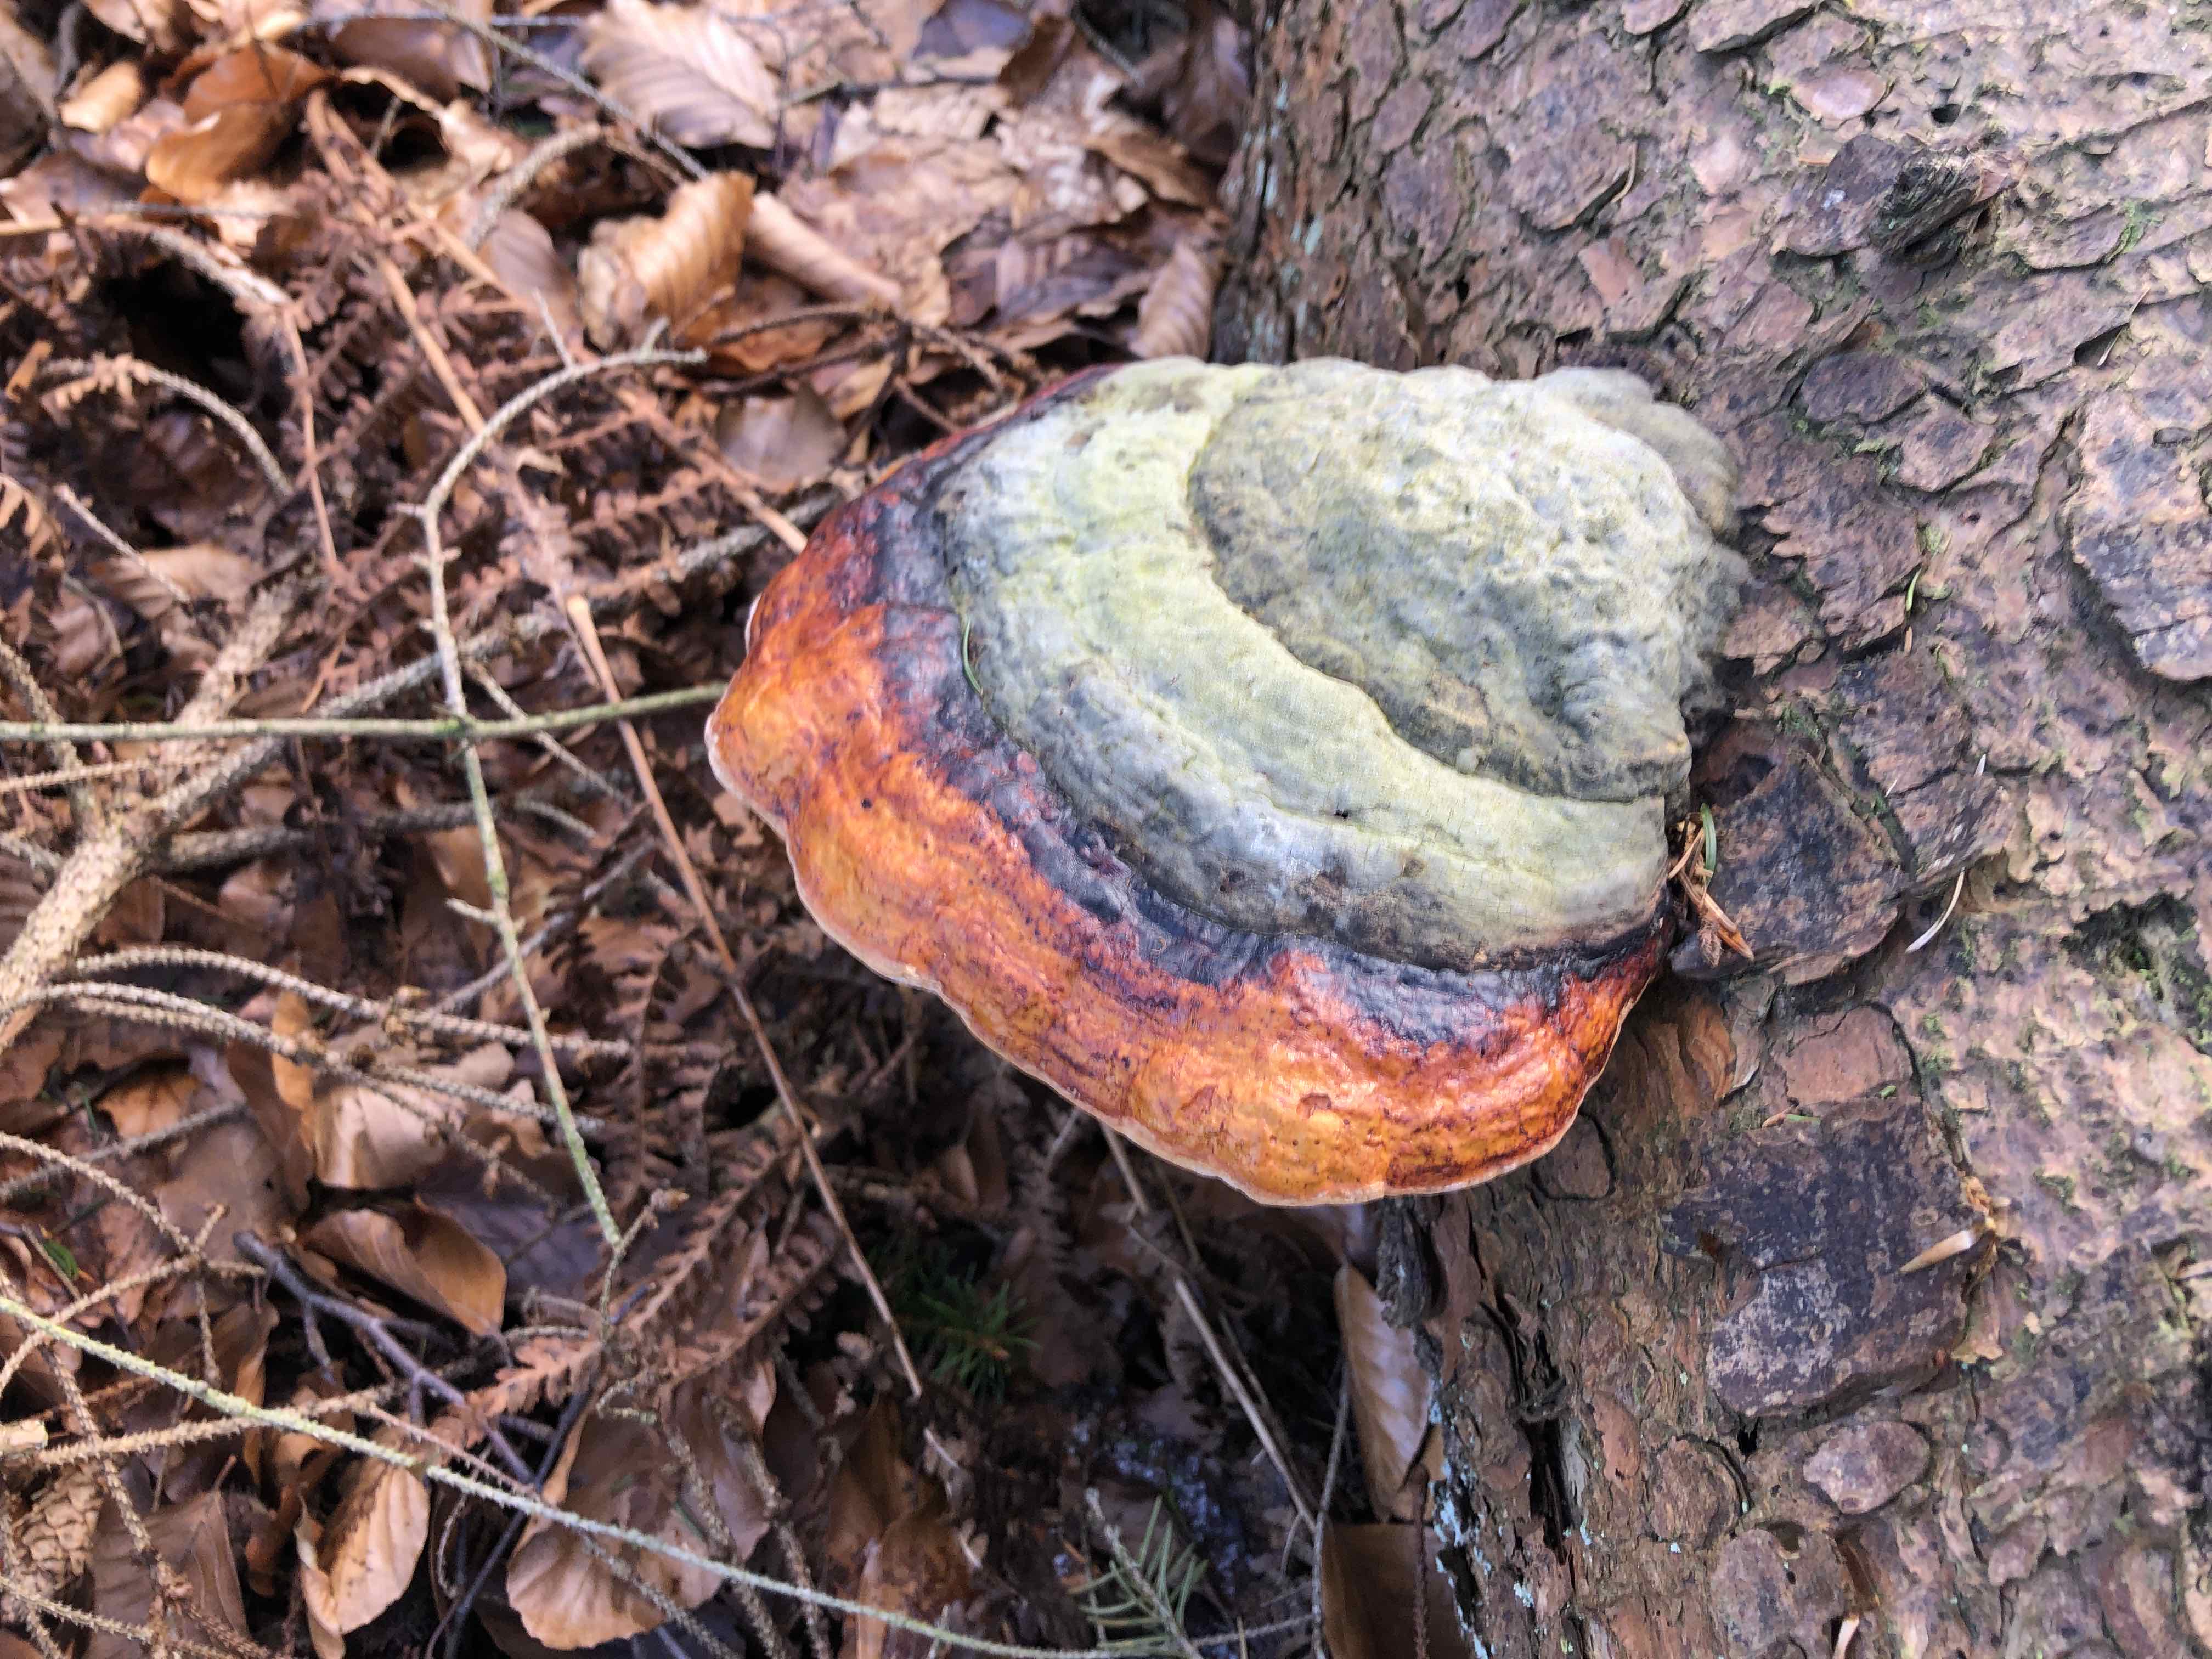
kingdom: Fungi
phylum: Basidiomycota
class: Agaricomycetes
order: Polyporales
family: Fomitopsidaceae
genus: Fomitopsis
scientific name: Fomitopsis pinicola
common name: randbæltet hovporesvamp
